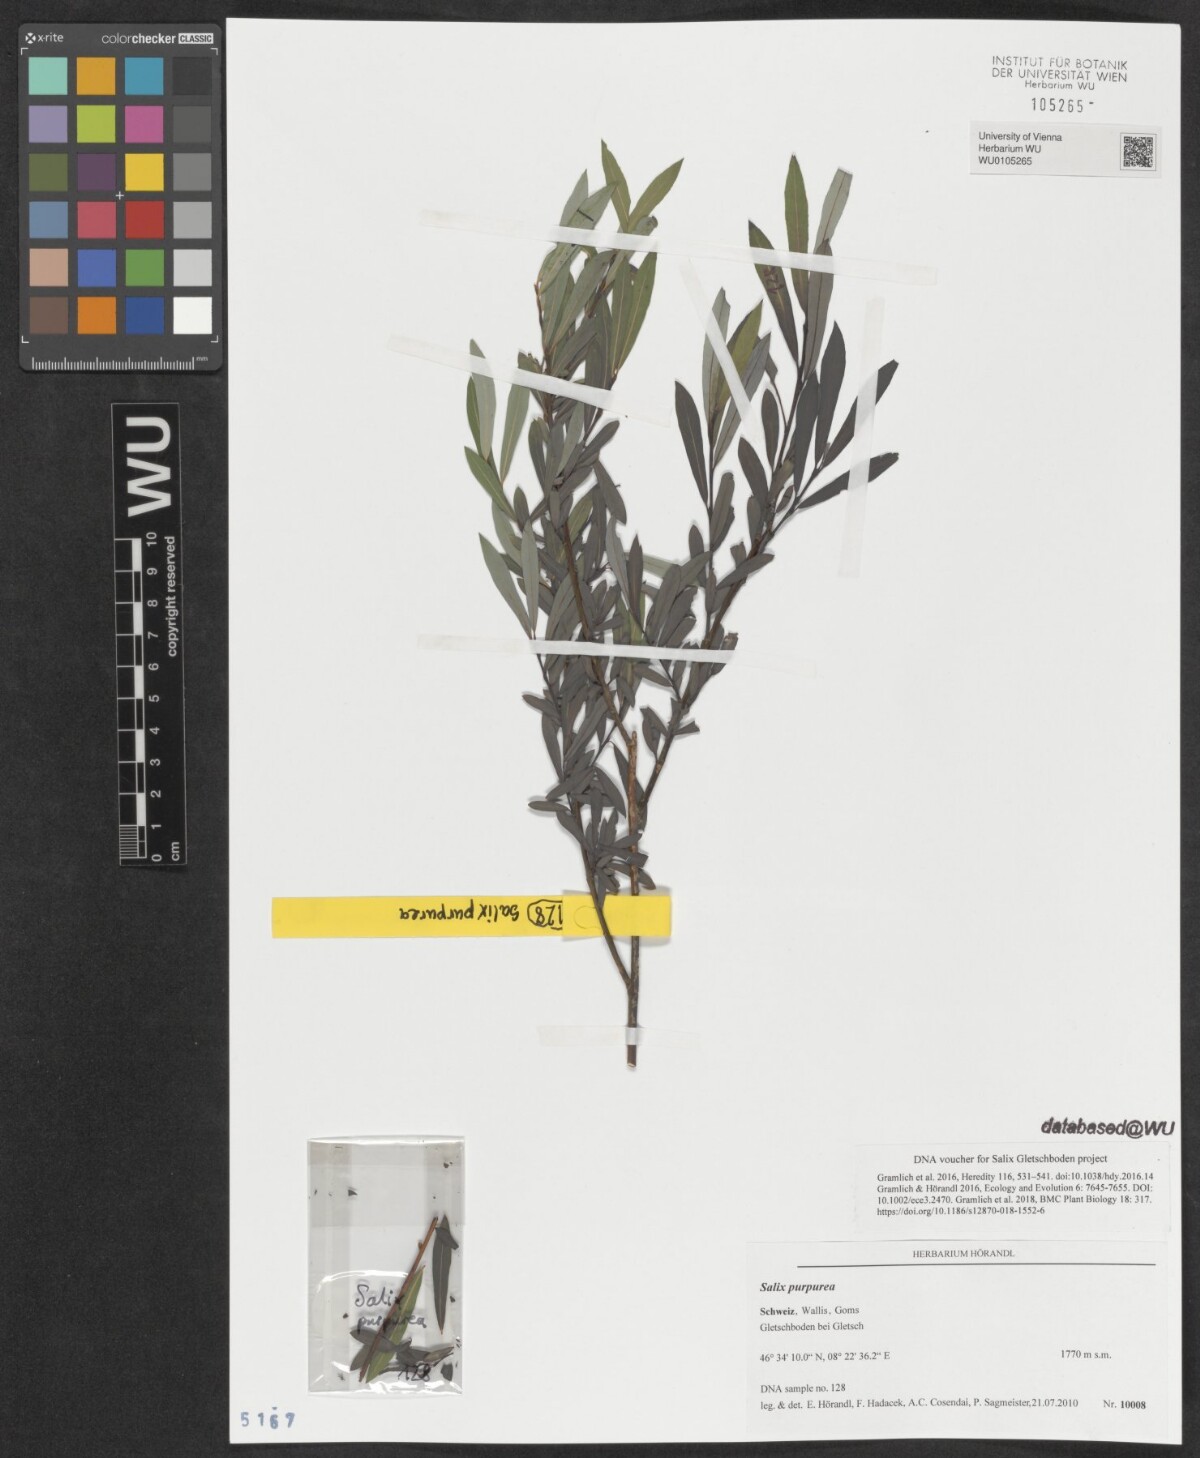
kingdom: Plantae
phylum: Tracheophyta
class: Magnoliopsida
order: Malpighiales
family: Salicaceae
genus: Salix
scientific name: Salix purpurea
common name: Purple willow
